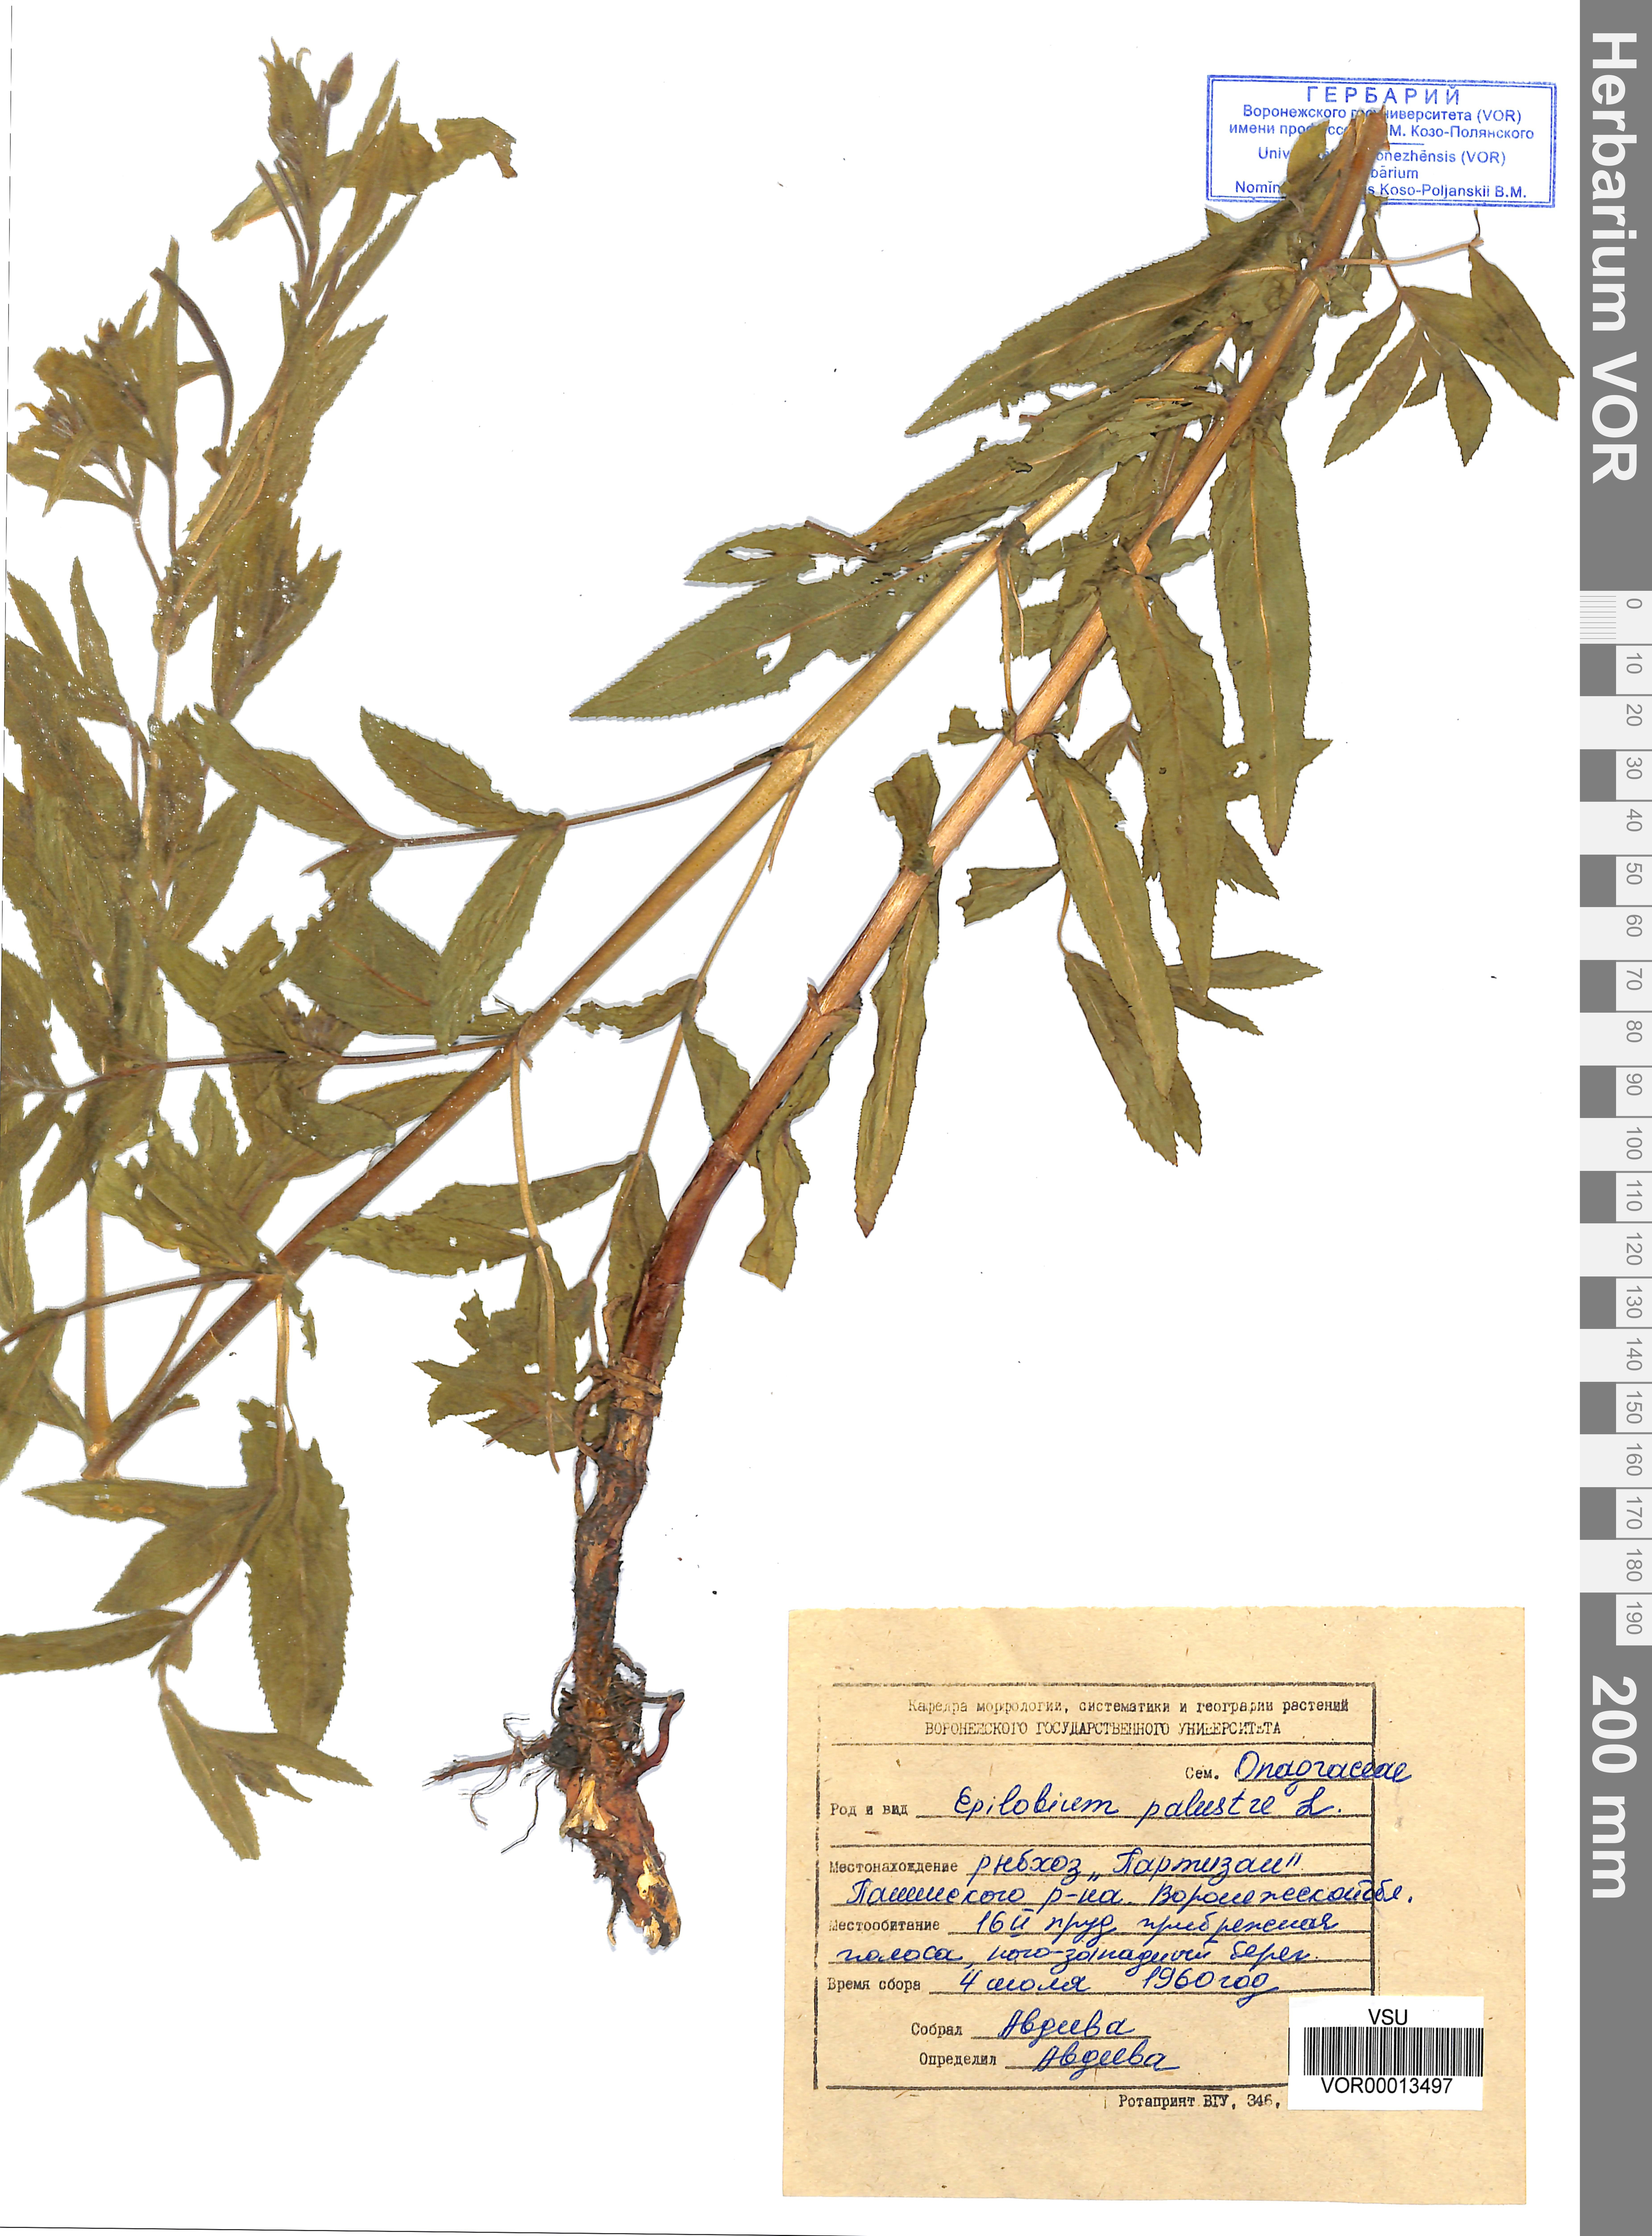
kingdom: Plantae
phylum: Tracheophyta
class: Magnoliopsida
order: Myrtales
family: Onagraceae
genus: Epilobium
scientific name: Epilobium palustre
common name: Marsh willowherb
